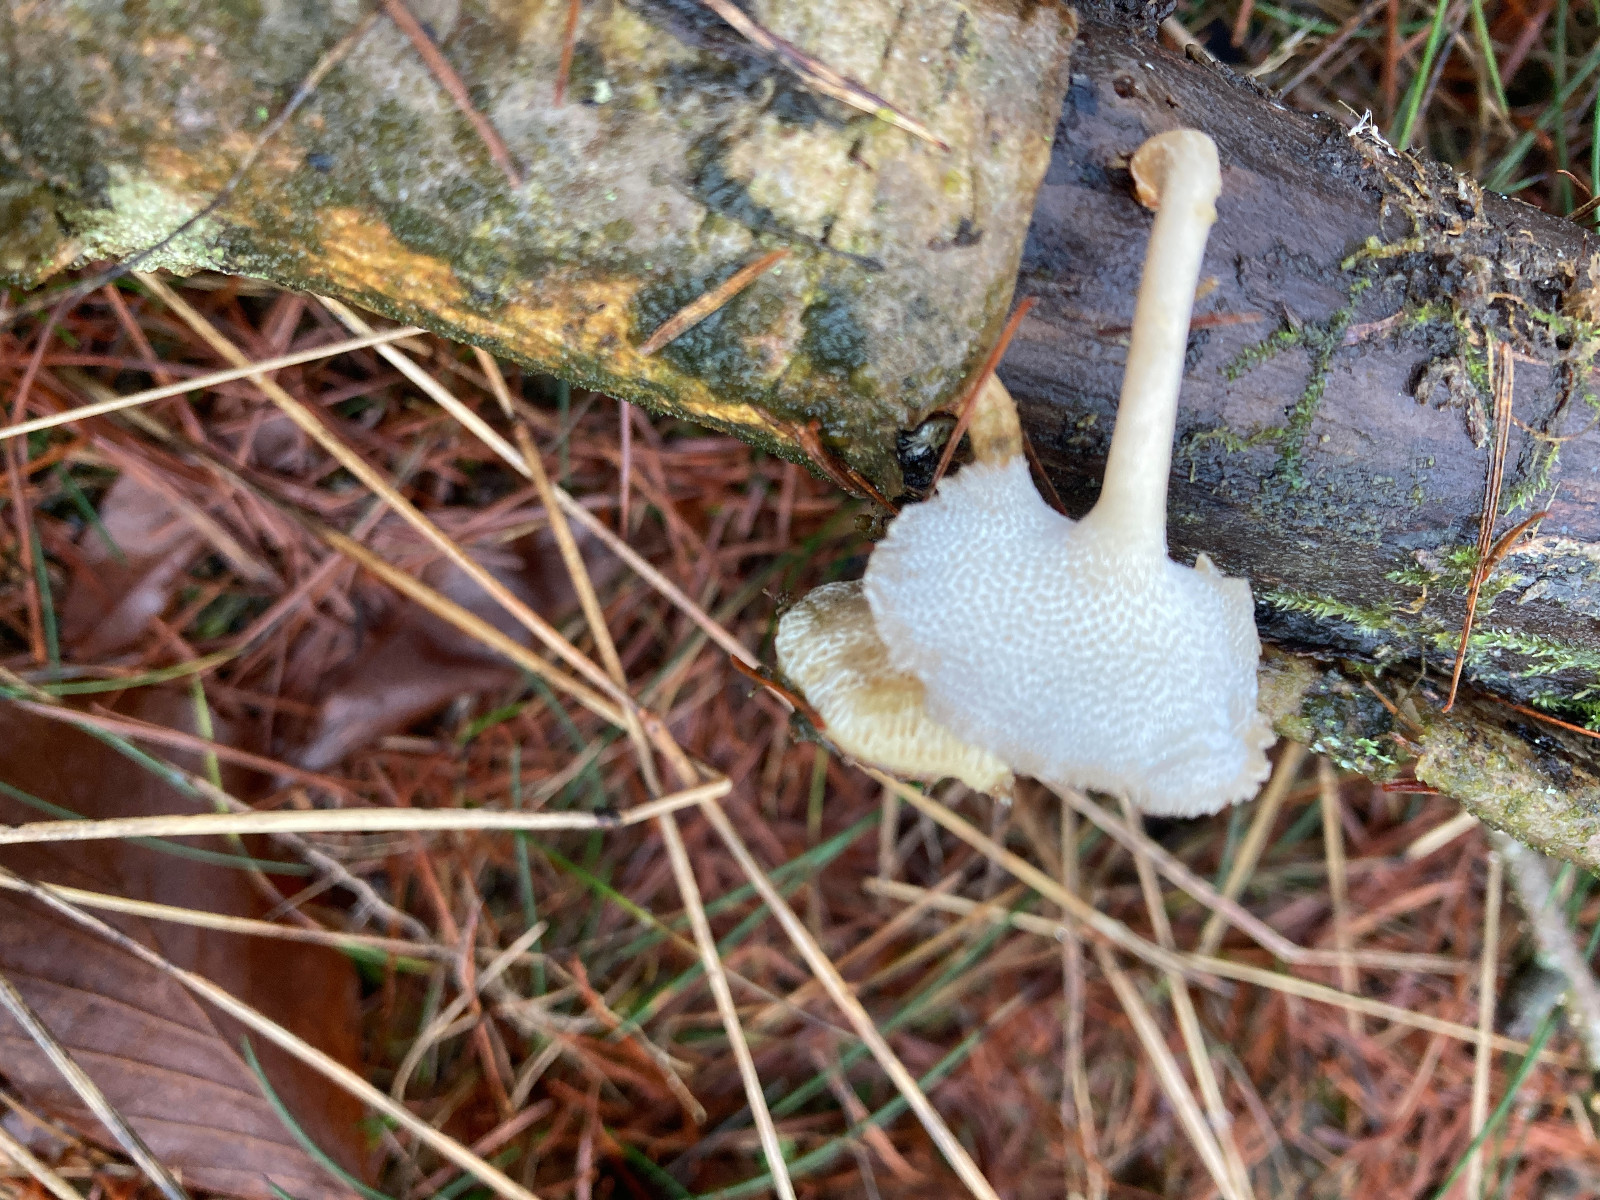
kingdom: Fungi
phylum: Basidiomycota
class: Agaricomycetes
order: Polyporales
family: Polyporaceae
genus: Lentinus
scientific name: Lentinus brumalis
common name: vinter-stilkporesvamp
